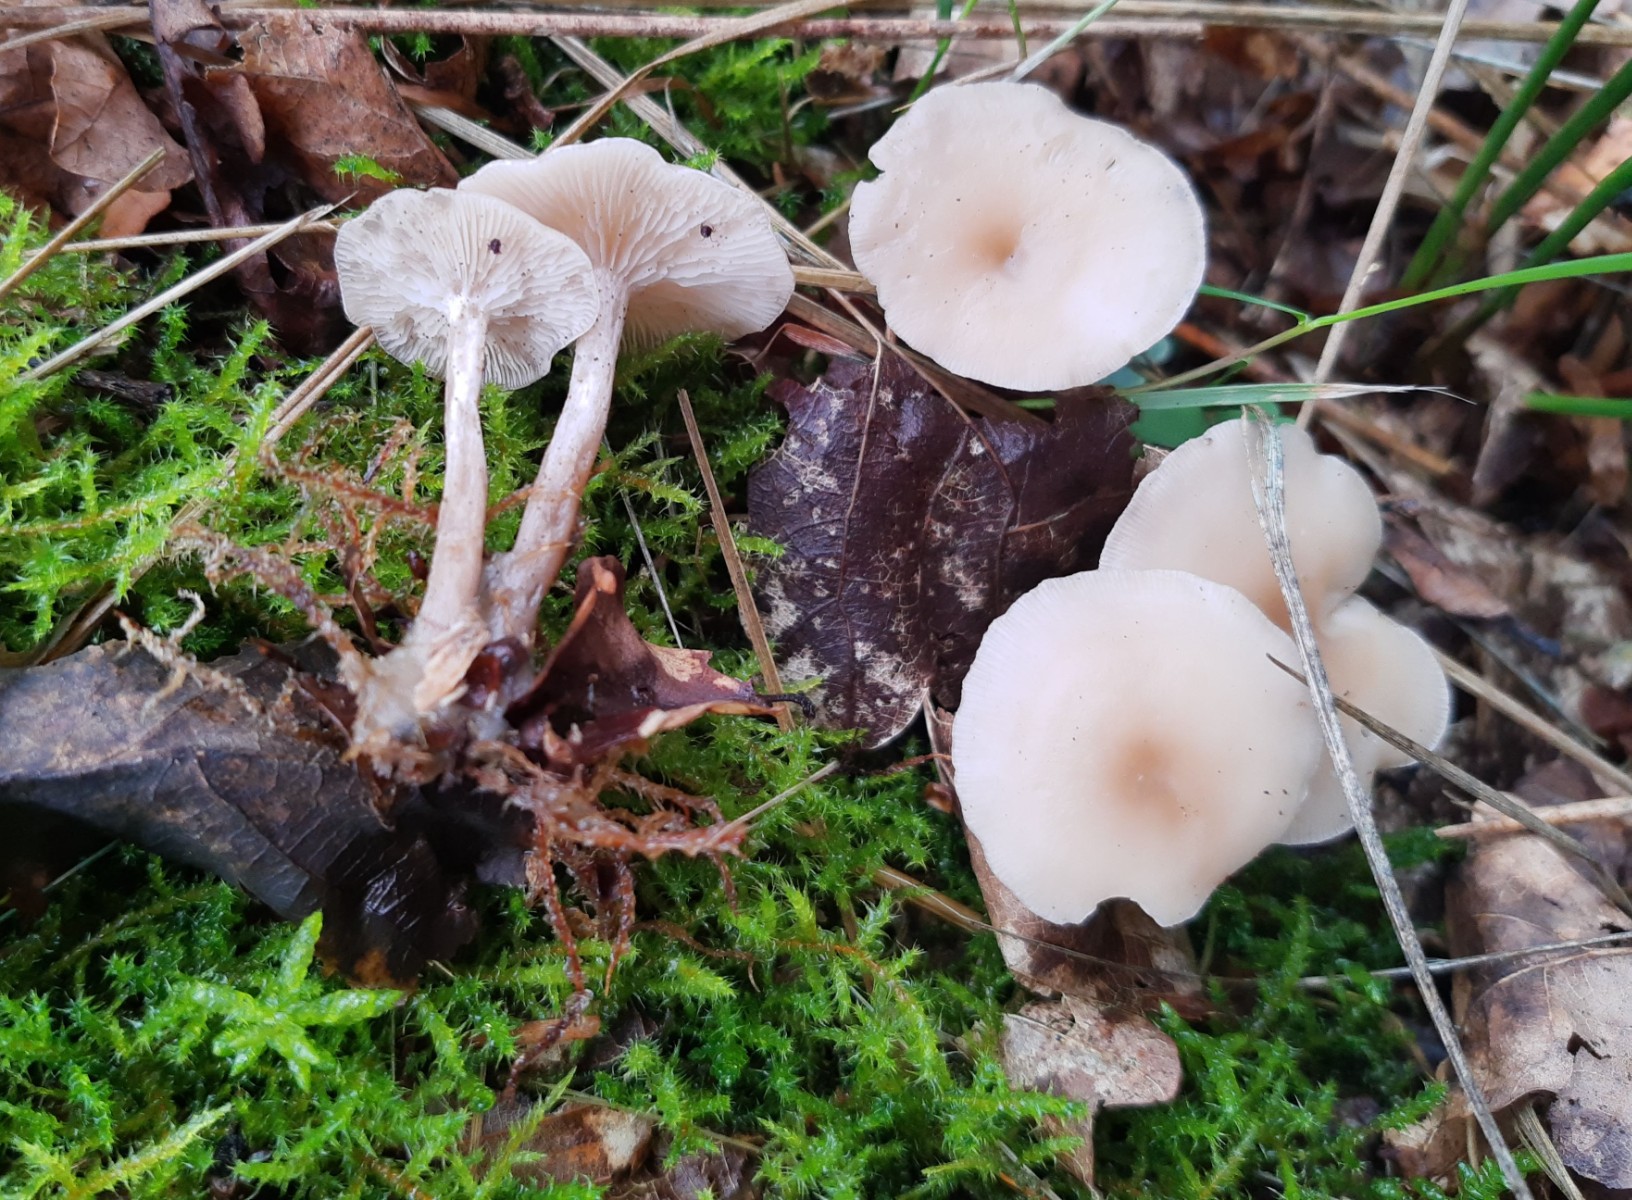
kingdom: Fungi
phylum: Basidiomycota
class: Agaricomycetes
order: Agaricales
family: Tricholomataceae
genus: Clitocybe
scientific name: Clitocybe metachroa
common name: grå tragthat
